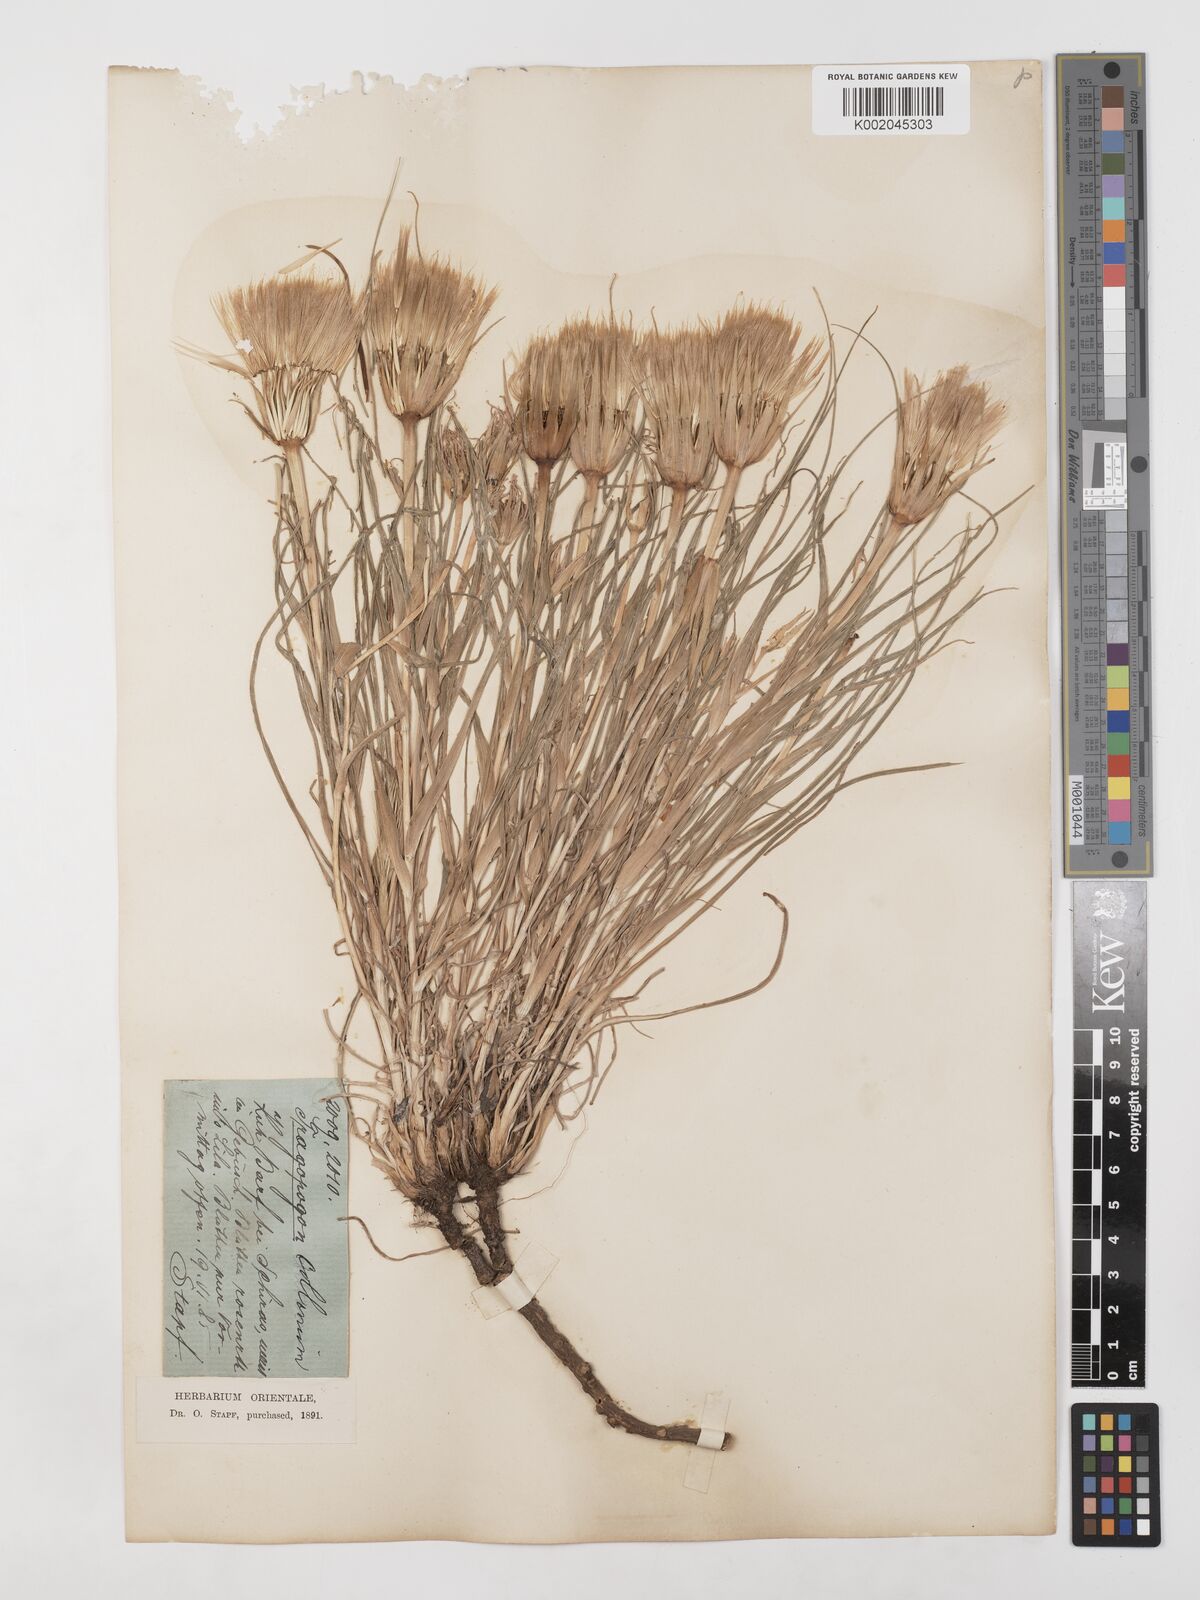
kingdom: Plantae
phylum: Tracheophyta
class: Magnoliopsida
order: Asterales
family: Asteraceae
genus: Tragopogon
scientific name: Tragopogon collinus
